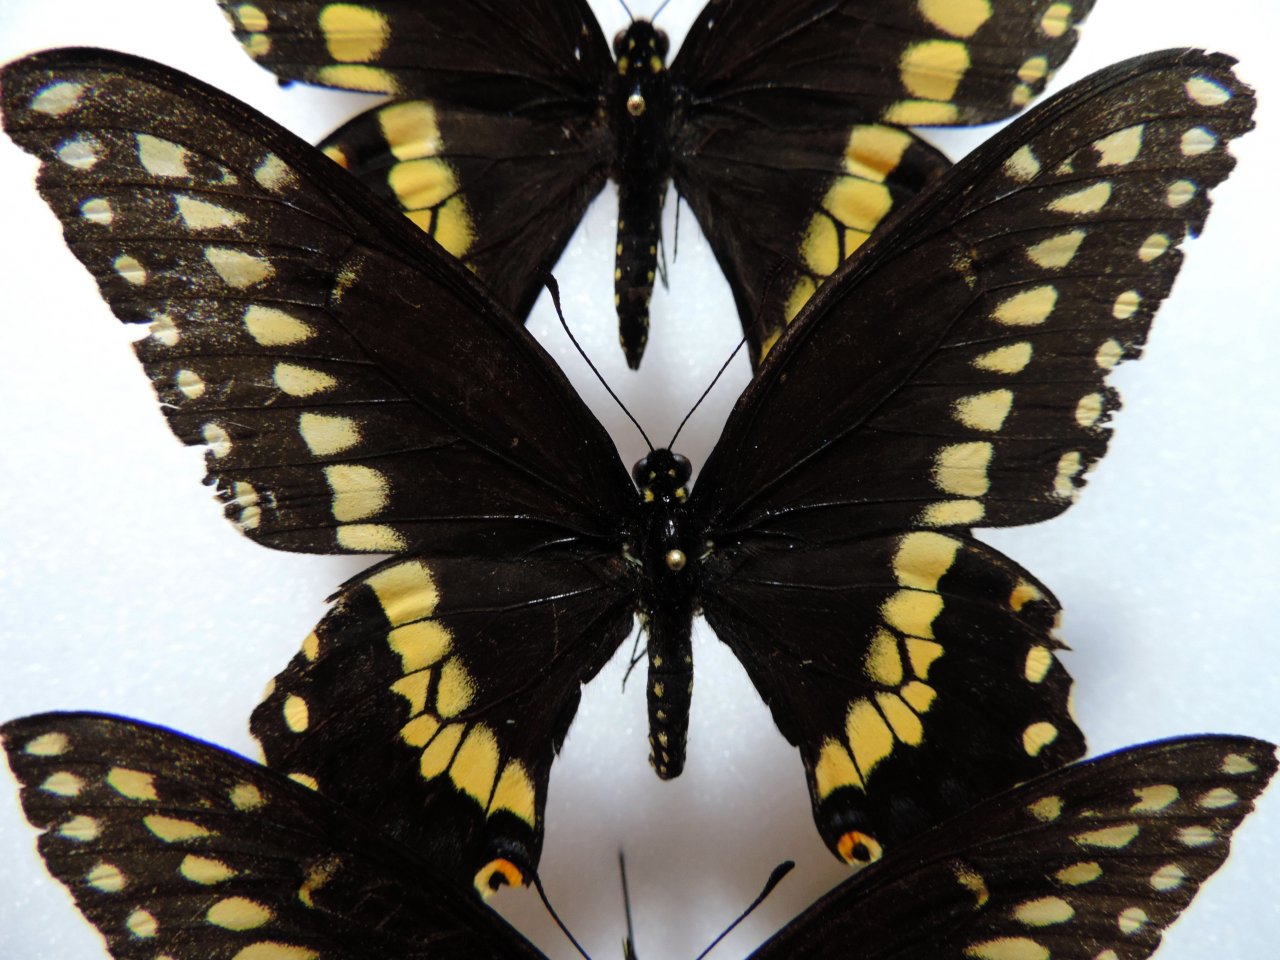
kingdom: Animalia
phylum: Arthropoda
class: Insecta
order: Lepidoptera
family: Papilionidae
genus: Papilio
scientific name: Papilio polyxenes
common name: Black Swallowtail
